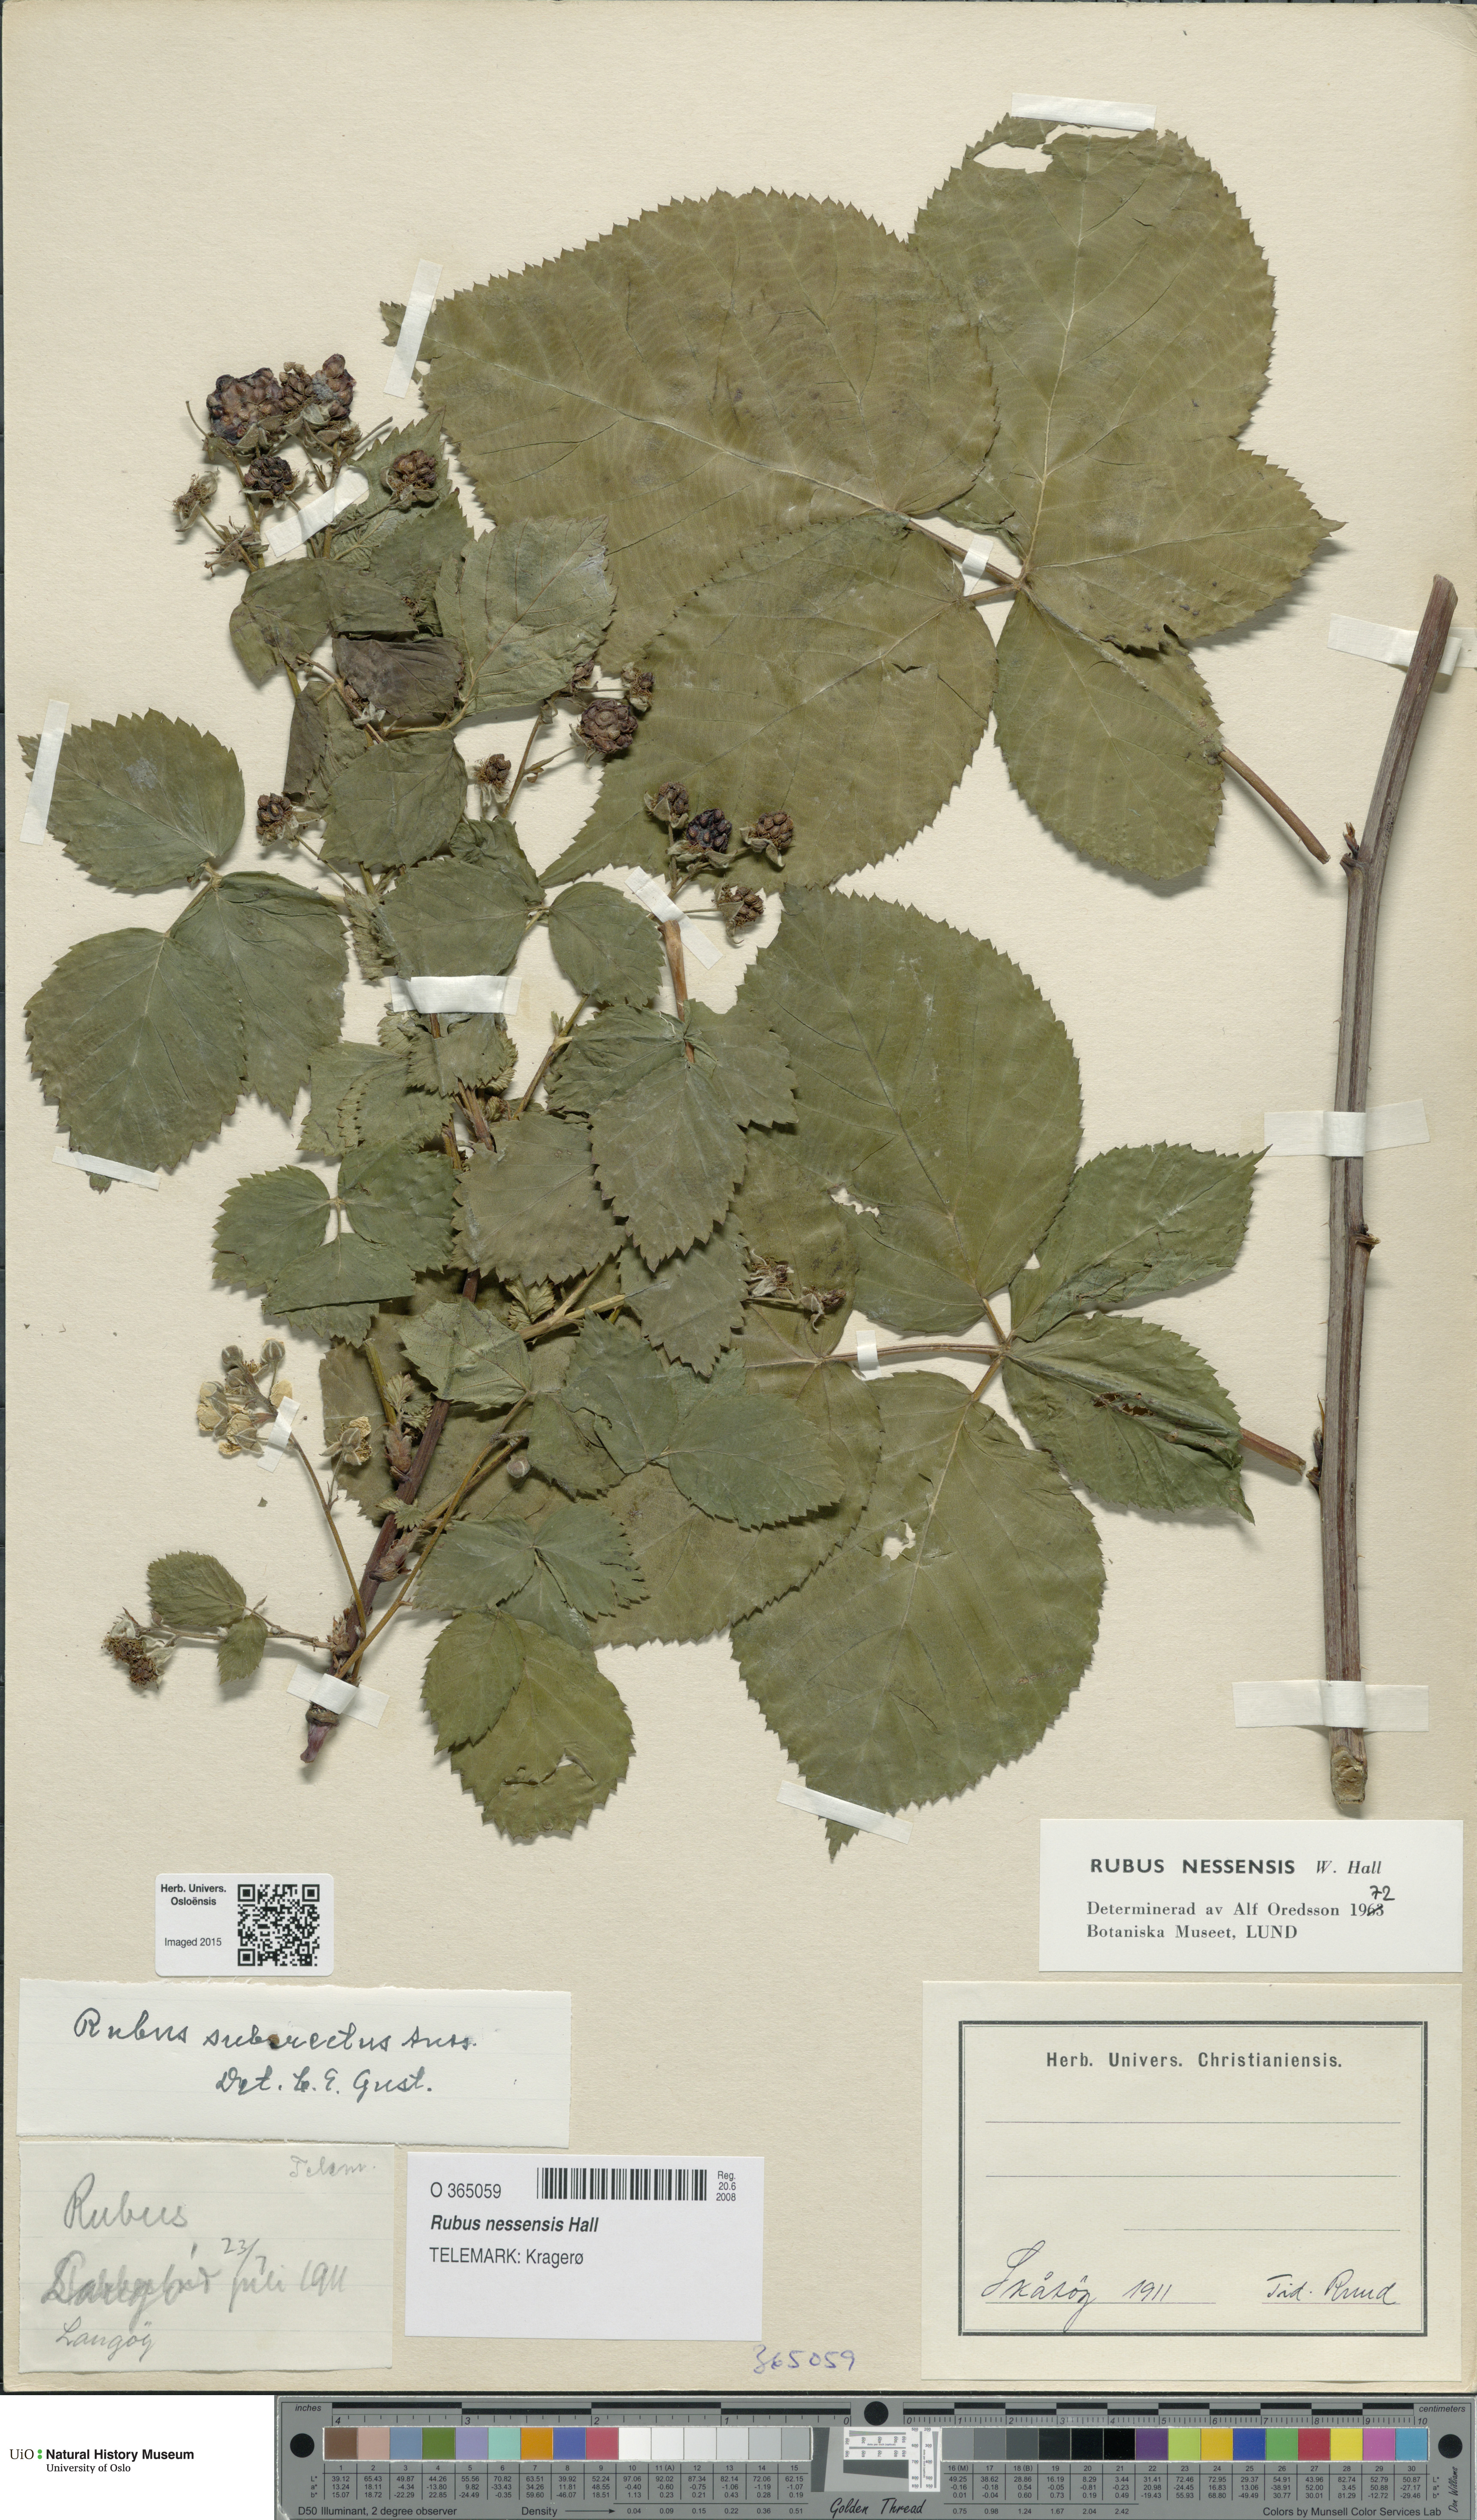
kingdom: Plantae
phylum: Tracheophyta
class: Magnoliopsida
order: Rosales
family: Rosaceae
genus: Rubus
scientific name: Rubus polonicus
